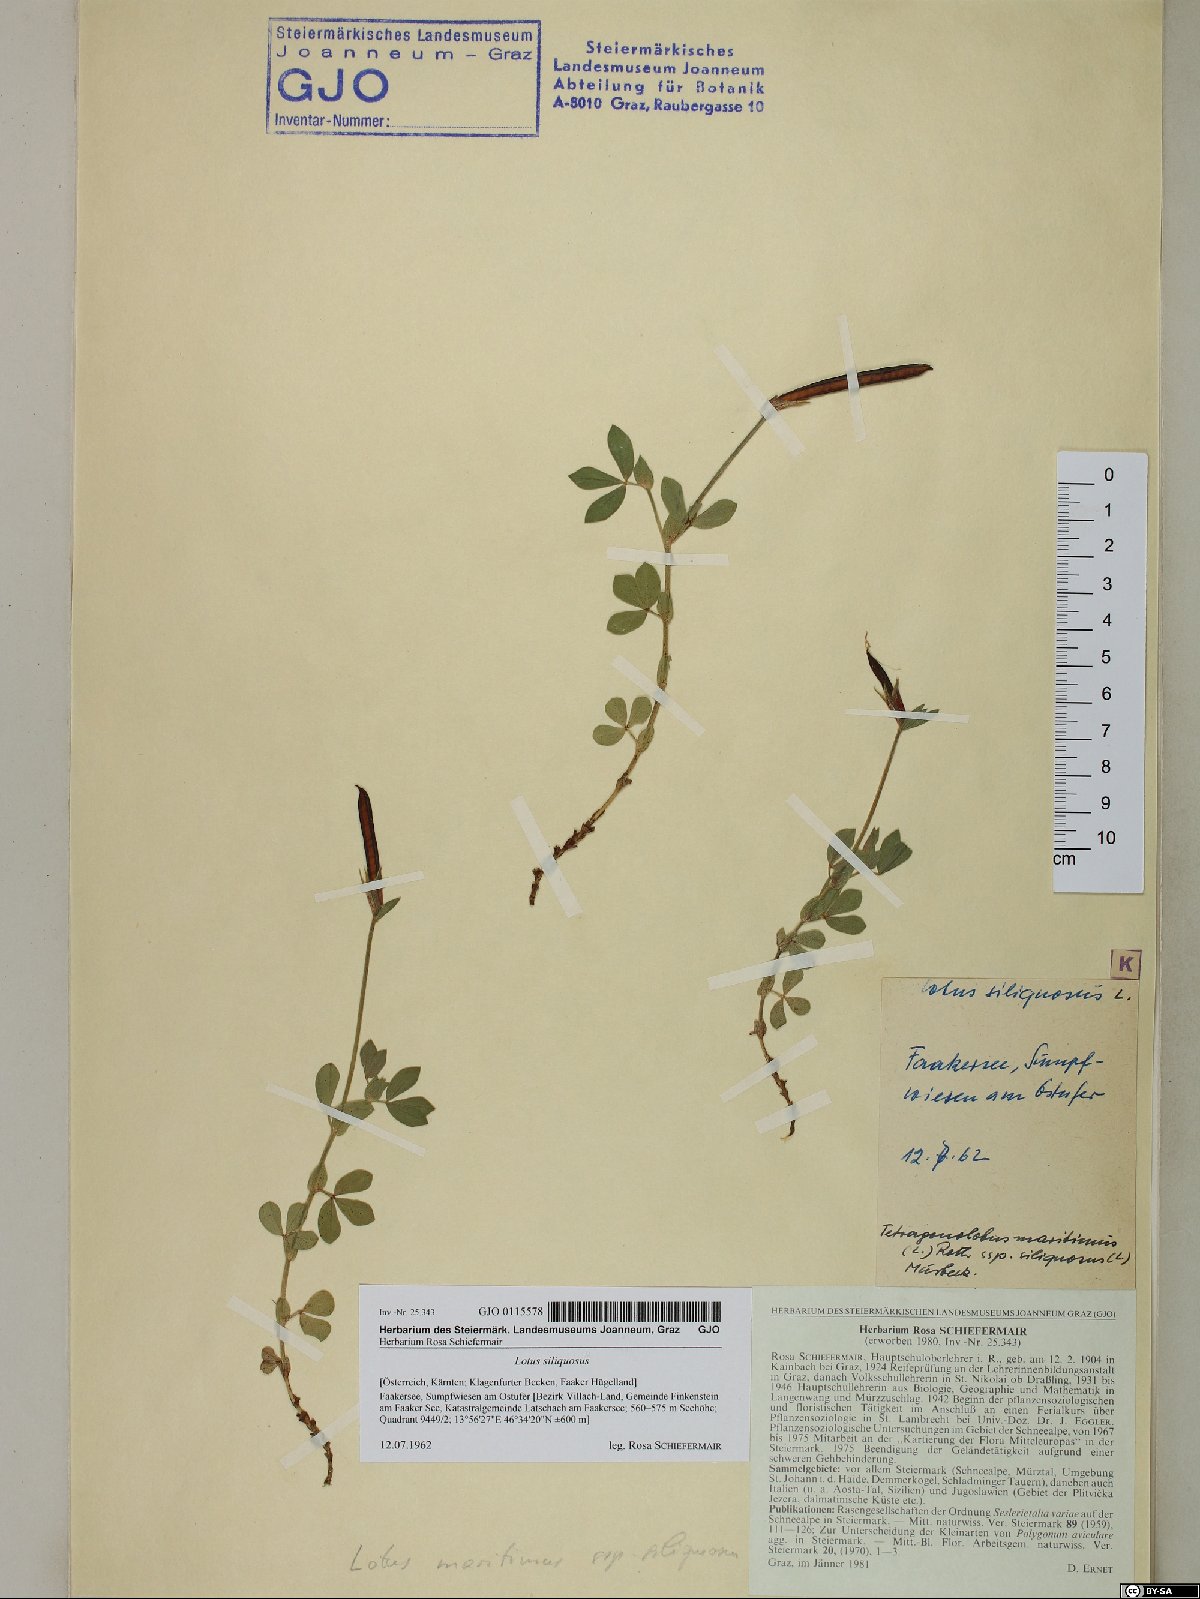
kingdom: Plantae
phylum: Tracheophyta
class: Magnoliopsida
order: Fabales
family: Fabaceae
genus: Lathyrus
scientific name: Lathyrus inconspicuus
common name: Inconspicuous pea
